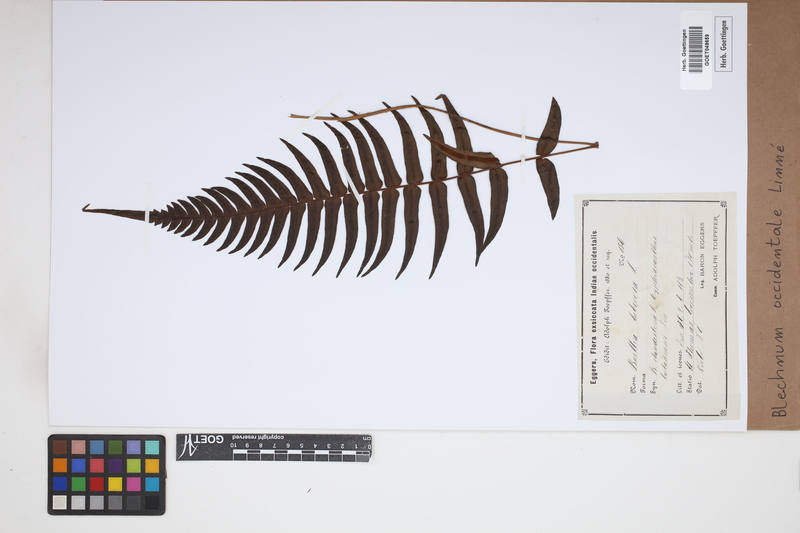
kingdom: Plantae
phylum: Tracheophyta
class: Polypodiopsida
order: Polypodiales
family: Blechnaceae
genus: Blechnum
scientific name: Blechnum occidentale
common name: Hammock fern
